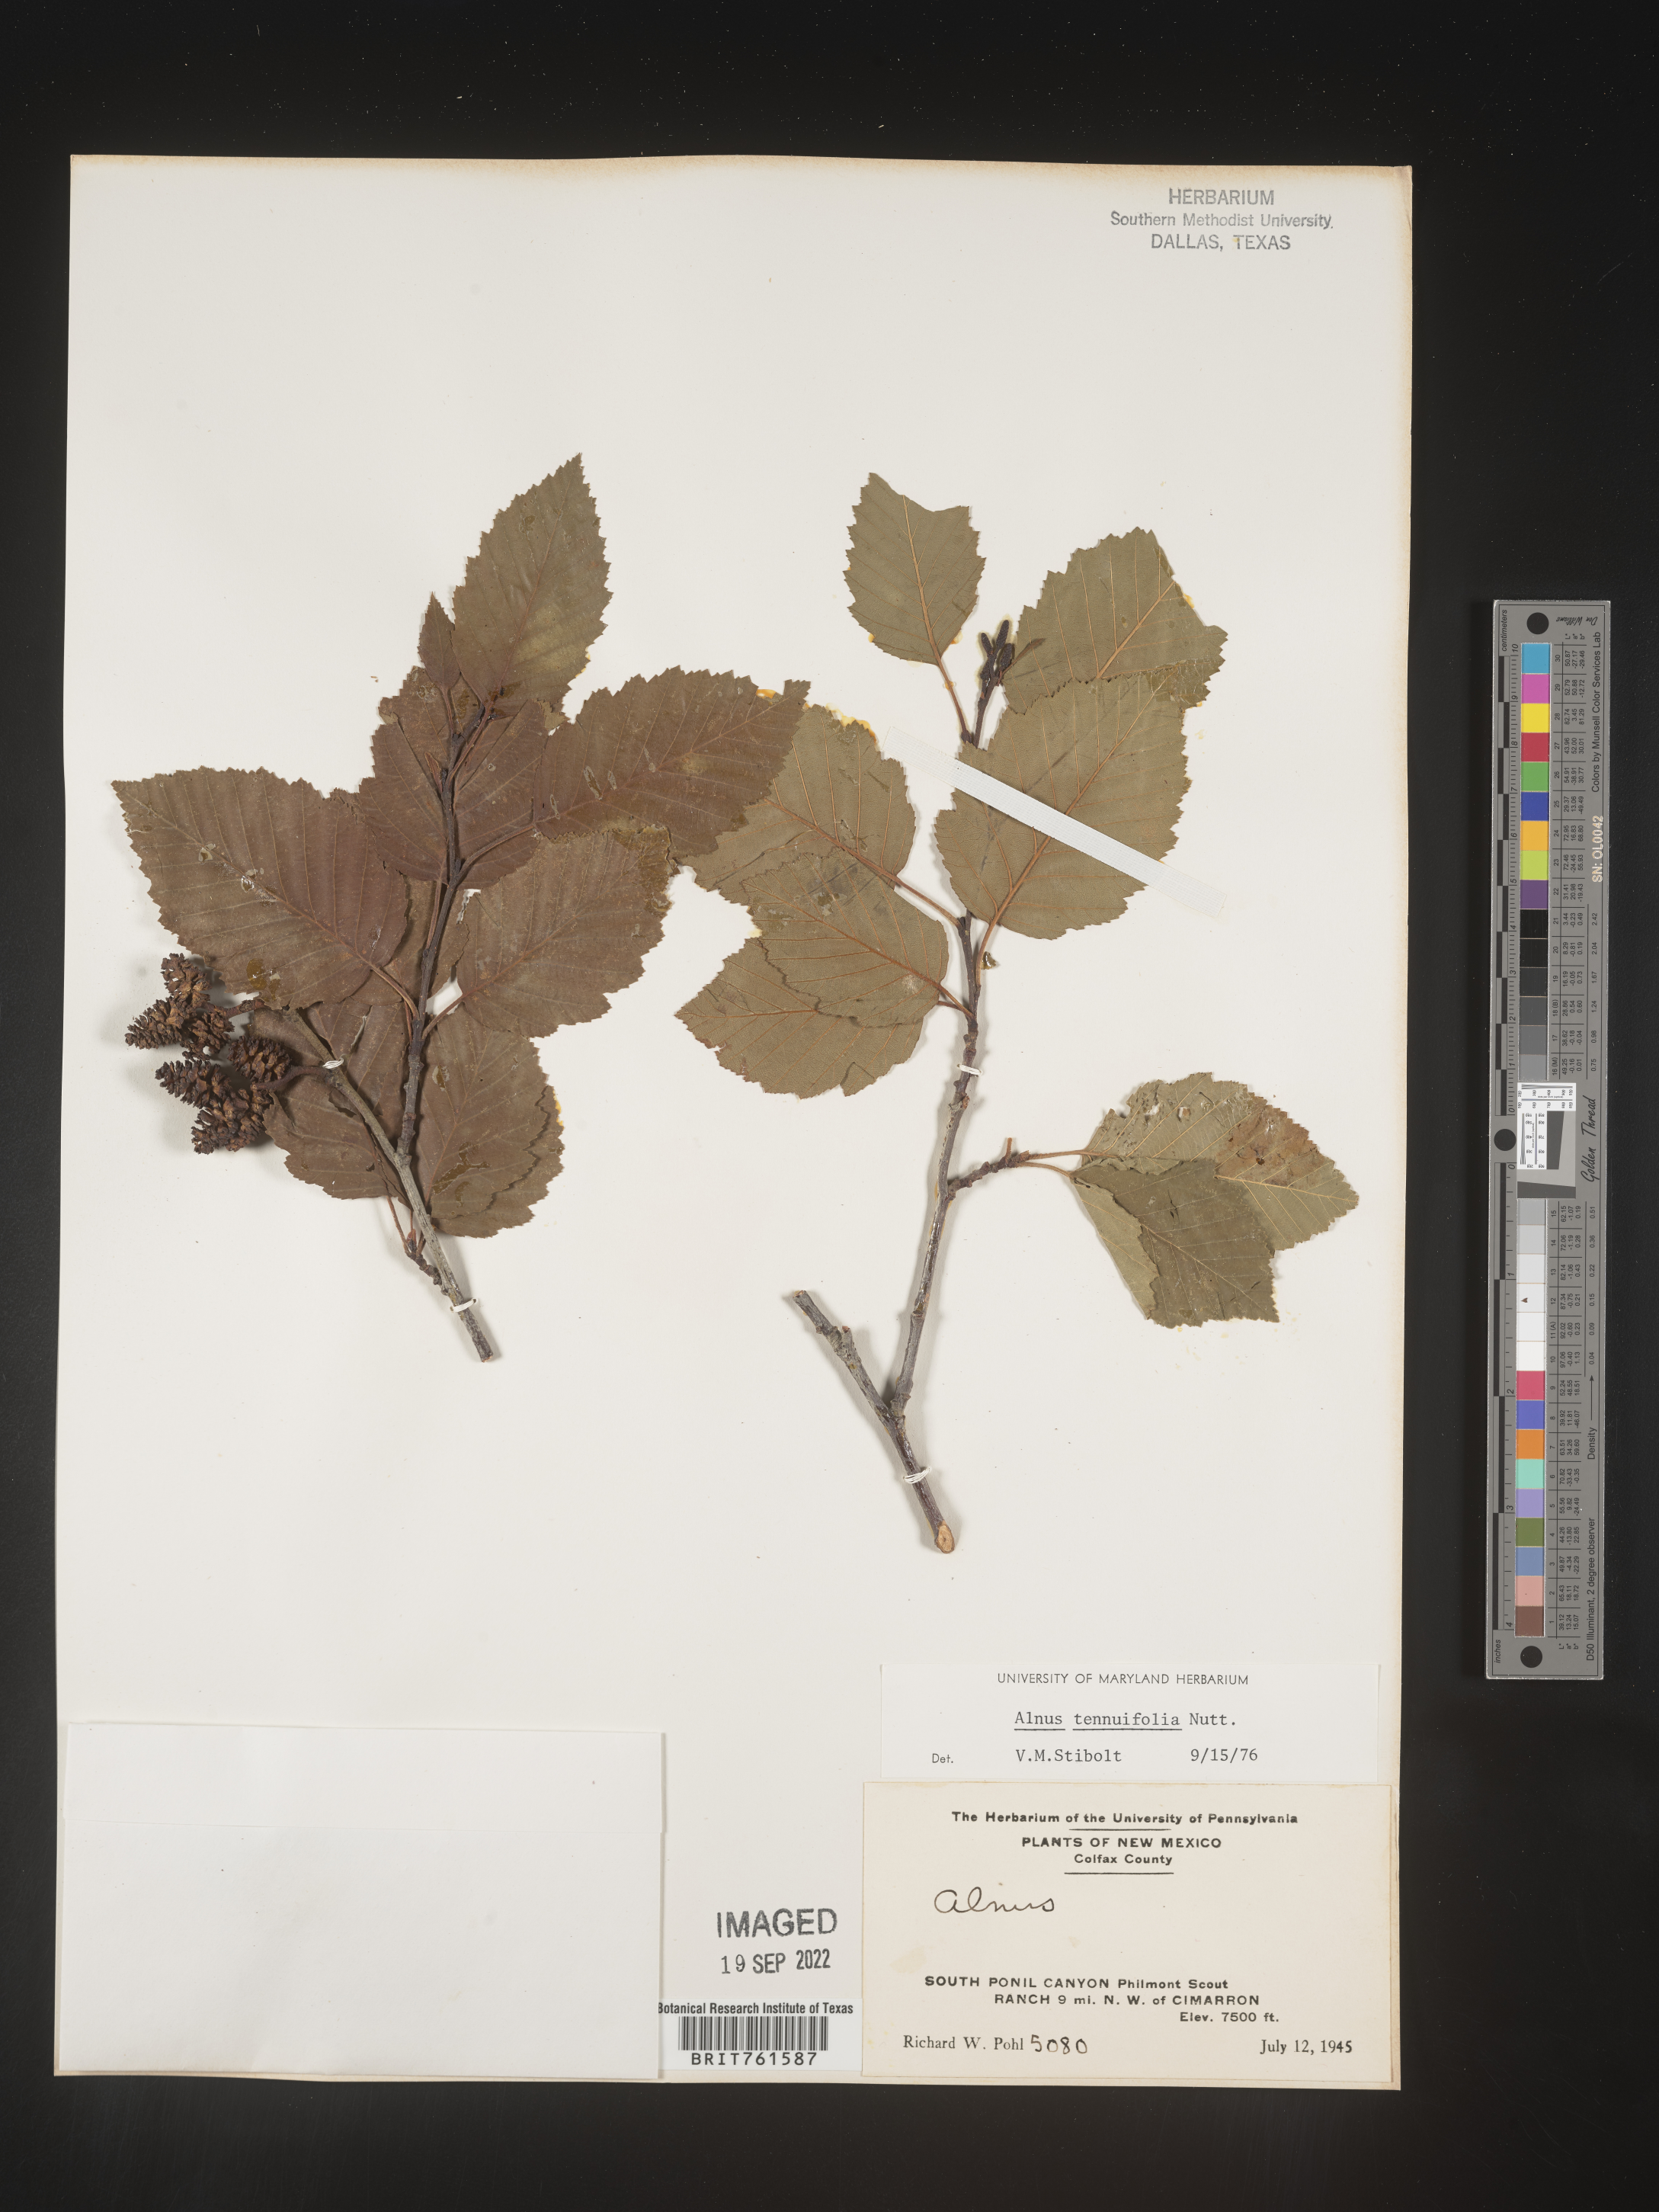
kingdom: Plantae
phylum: Tracheophyta
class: Magnoliopsida
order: Fagales
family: Betulaceae
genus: Alnus
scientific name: Alnus incana
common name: Grey alder
